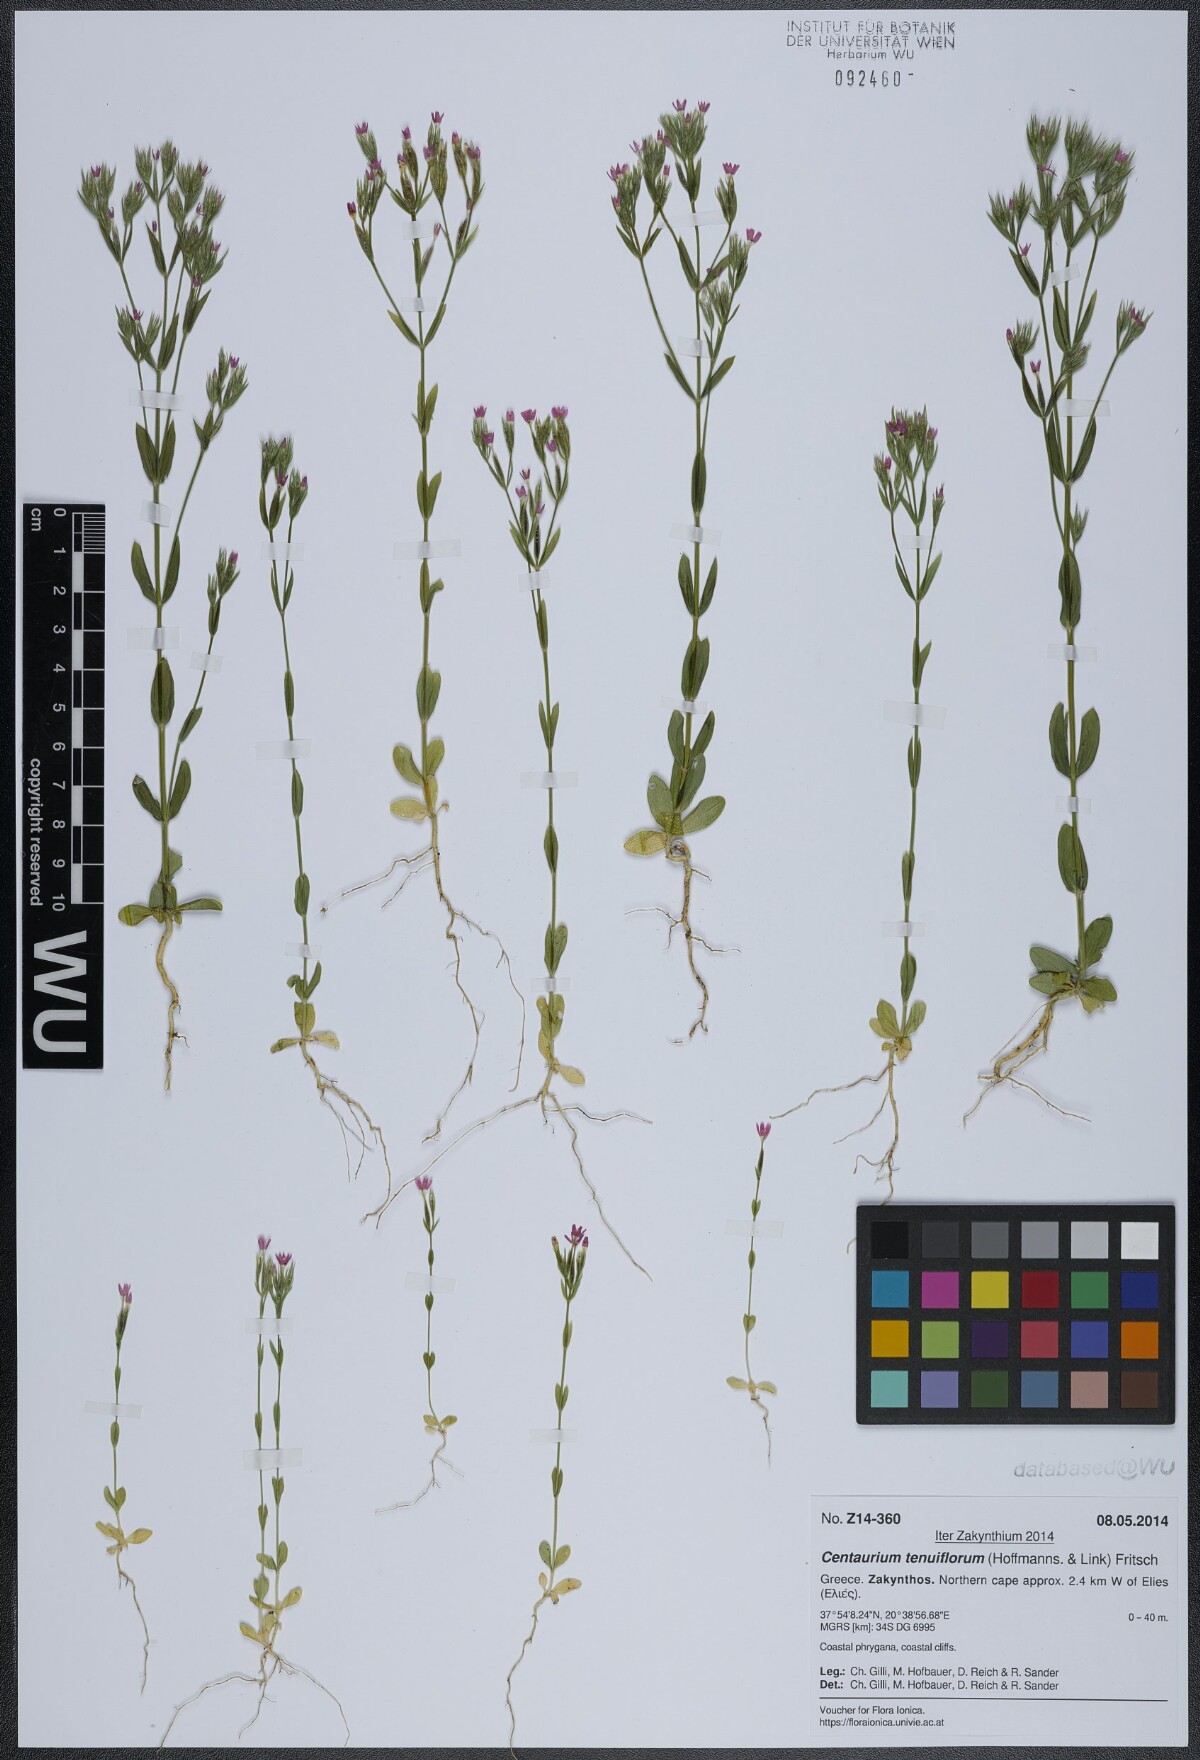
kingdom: Plantae
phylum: Tracheophyta
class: Magnoliopsida
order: Gentianales
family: Gentianaceae
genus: Centaurium
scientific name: Centaurium tenuiflorum
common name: Slender centaury
